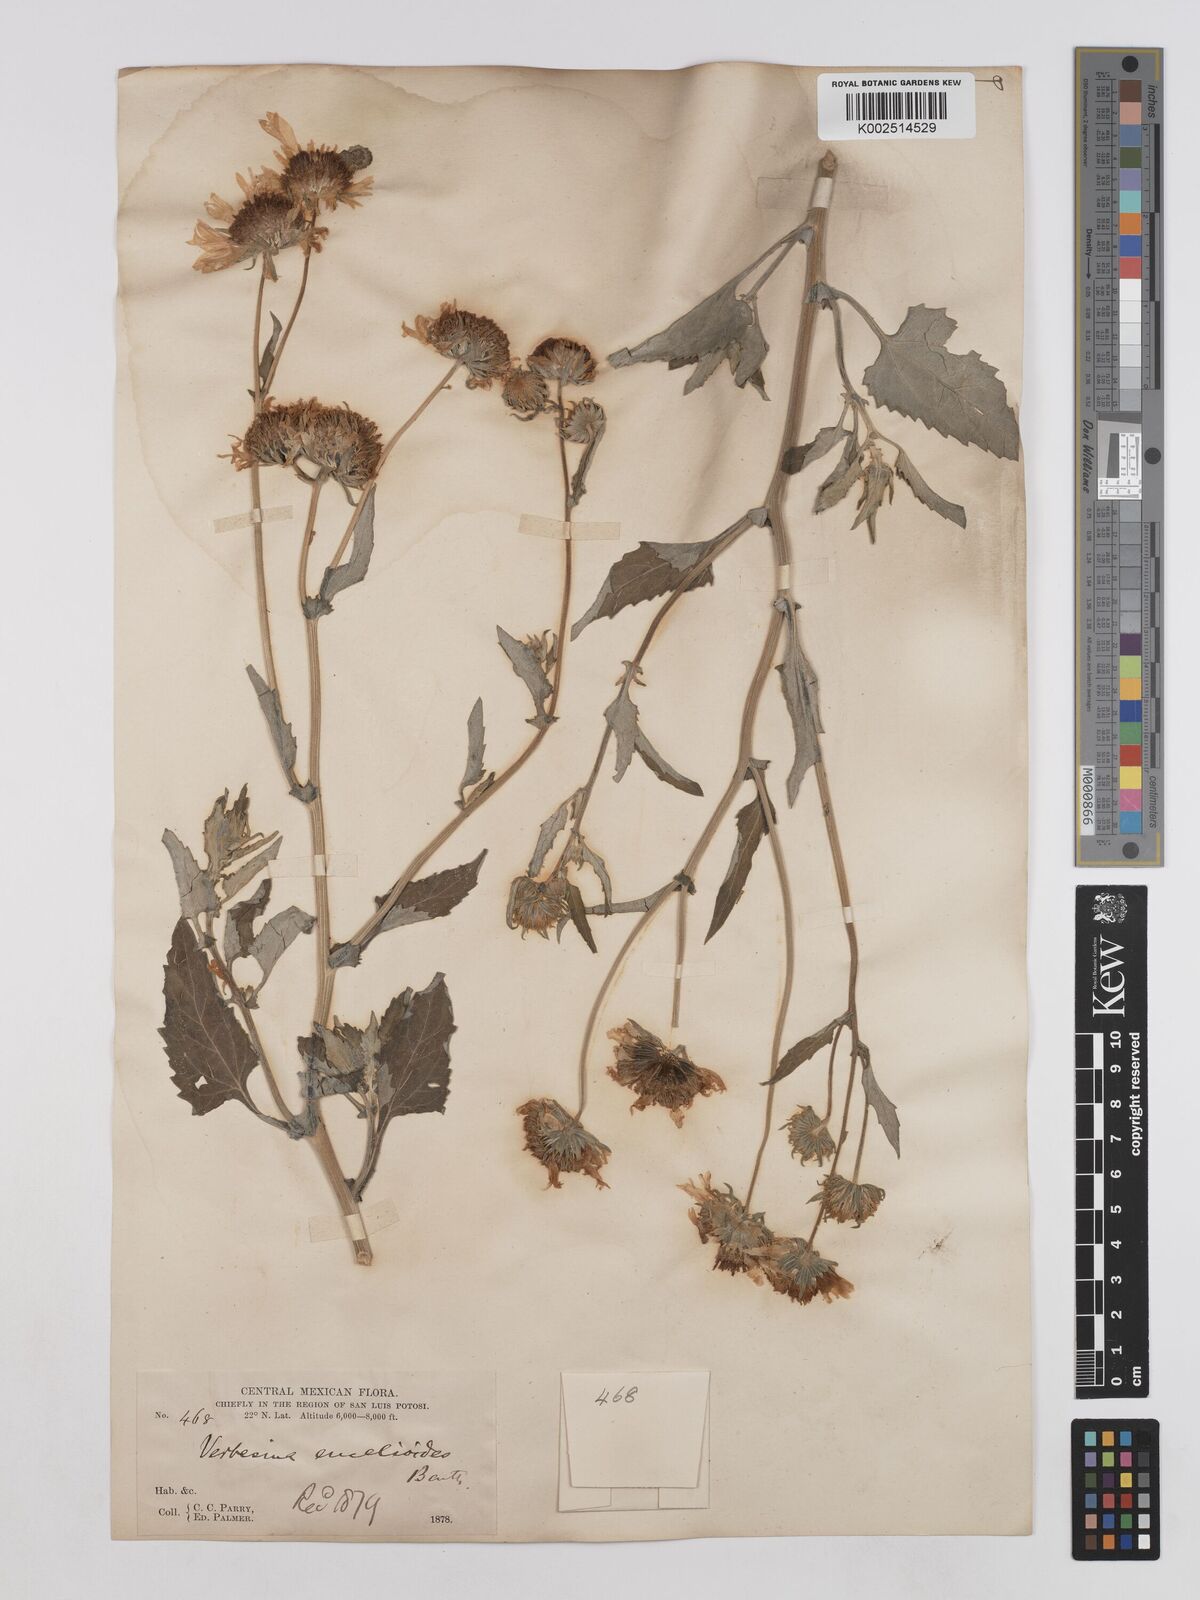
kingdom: Plantae
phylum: Tracheophyta
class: Magnoliopsida
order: Asterales
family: Asteraceae
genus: Verbesina
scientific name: Verbesina encelioides
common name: Golden crownbeard
